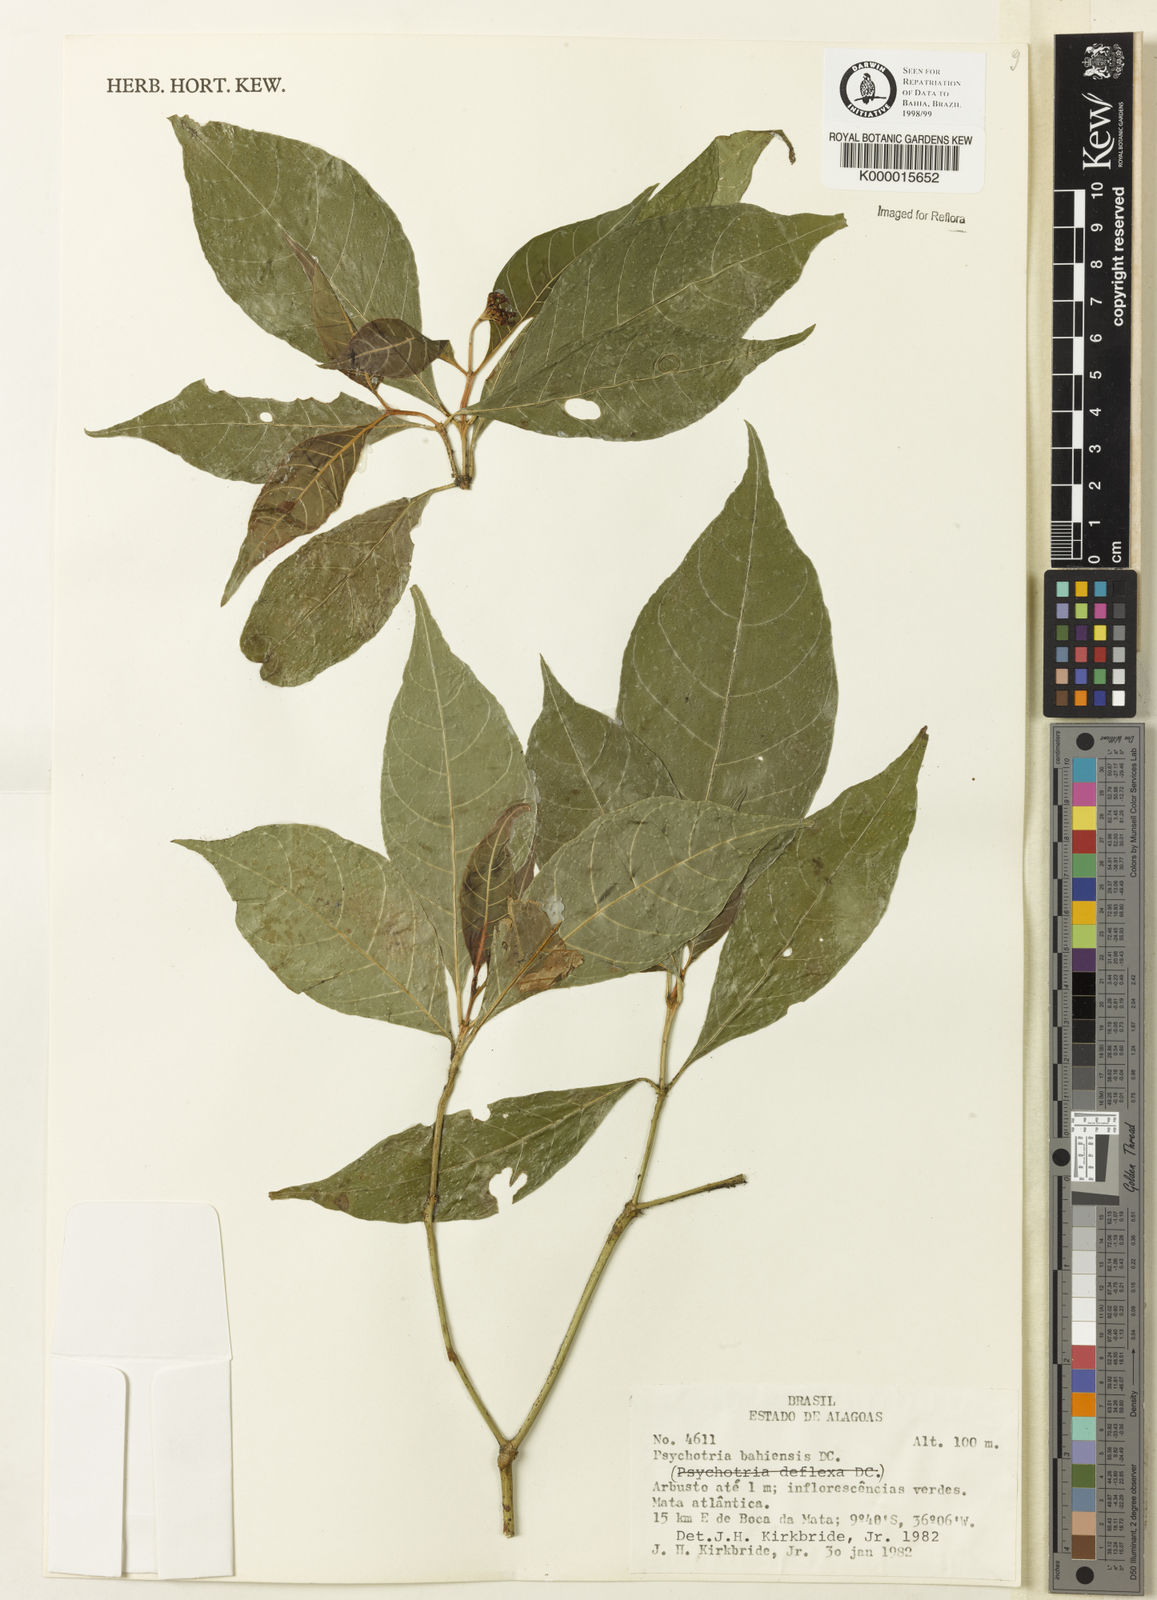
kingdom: Plantae
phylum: Tracheophyta
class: Magnoliopsida
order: Gentianales
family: Rubiaceae
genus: Psychotria
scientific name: Psychotria bahiensis
